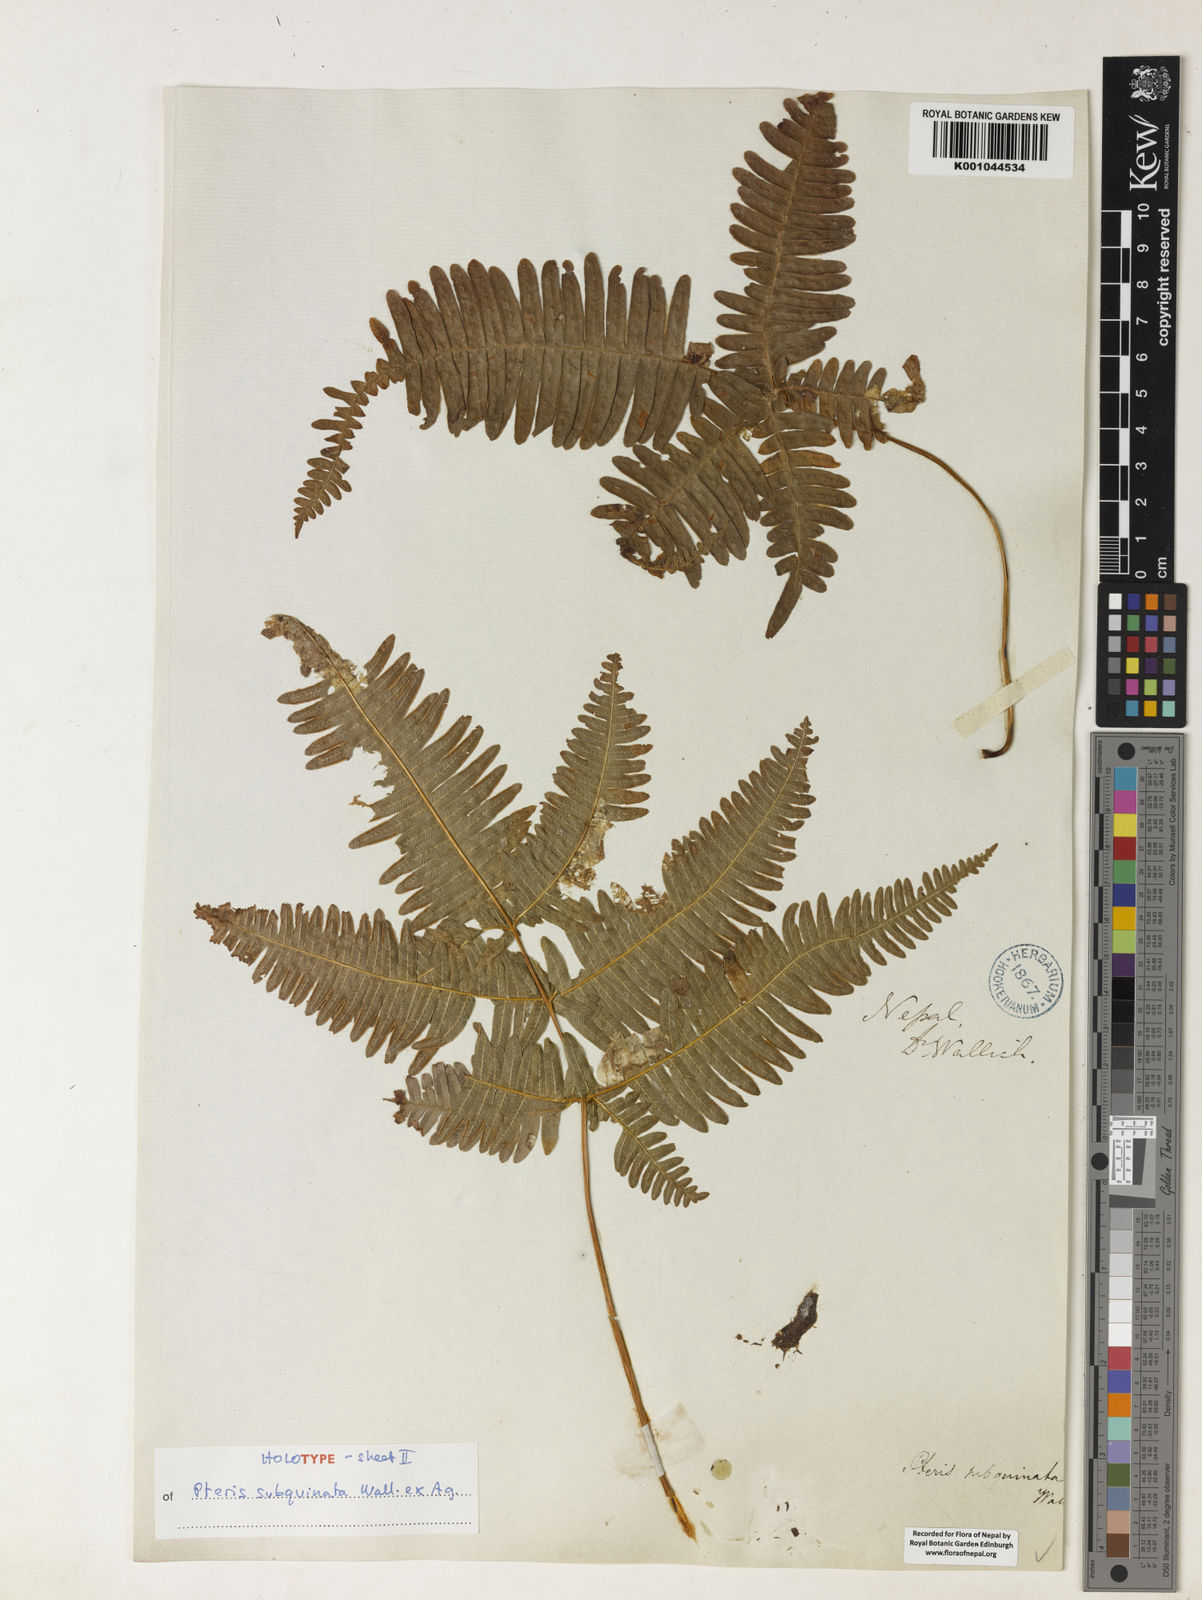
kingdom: Plantae
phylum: Tracheophyta
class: Polypodiopsida
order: Polypodiales
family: Pteridaceae
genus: Pteris
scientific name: Pteris subquinata
